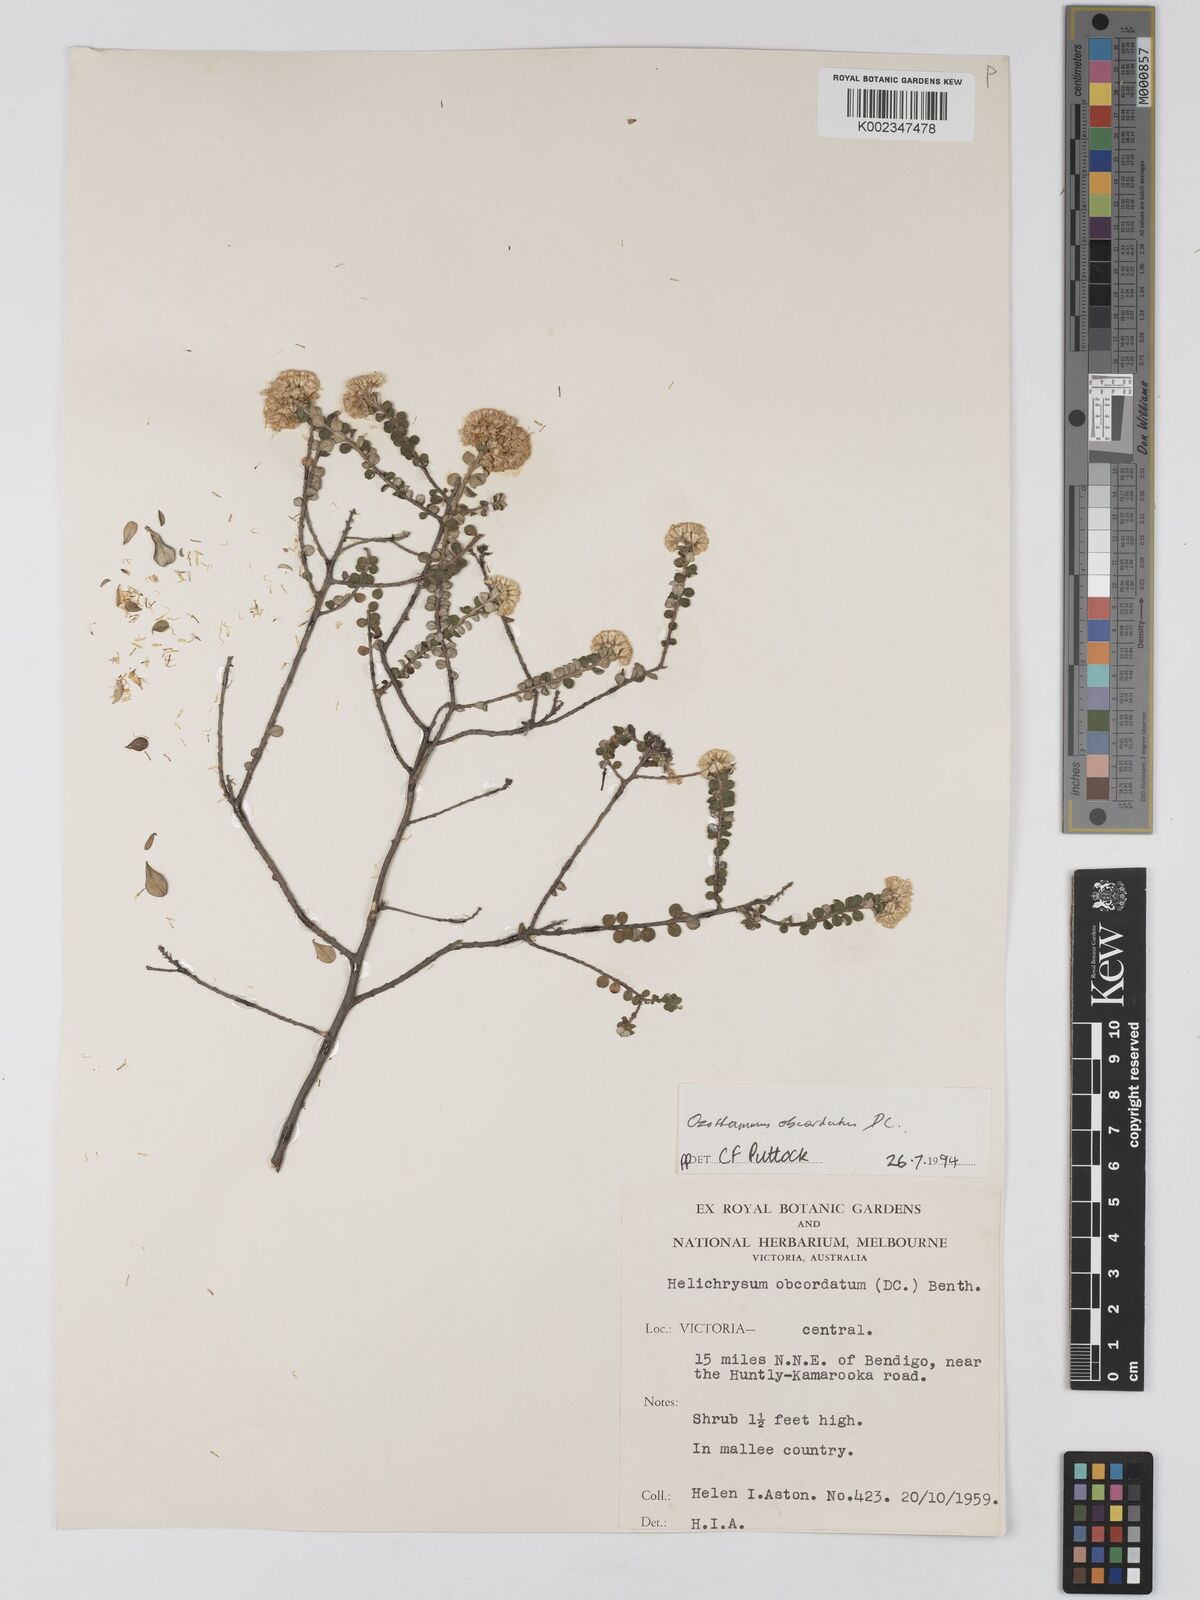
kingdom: Plantae
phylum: Tracheophyta
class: Magnoliopsida
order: Asterales
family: Asteraceae
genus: Ozothamnus
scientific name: Ozothamnus
